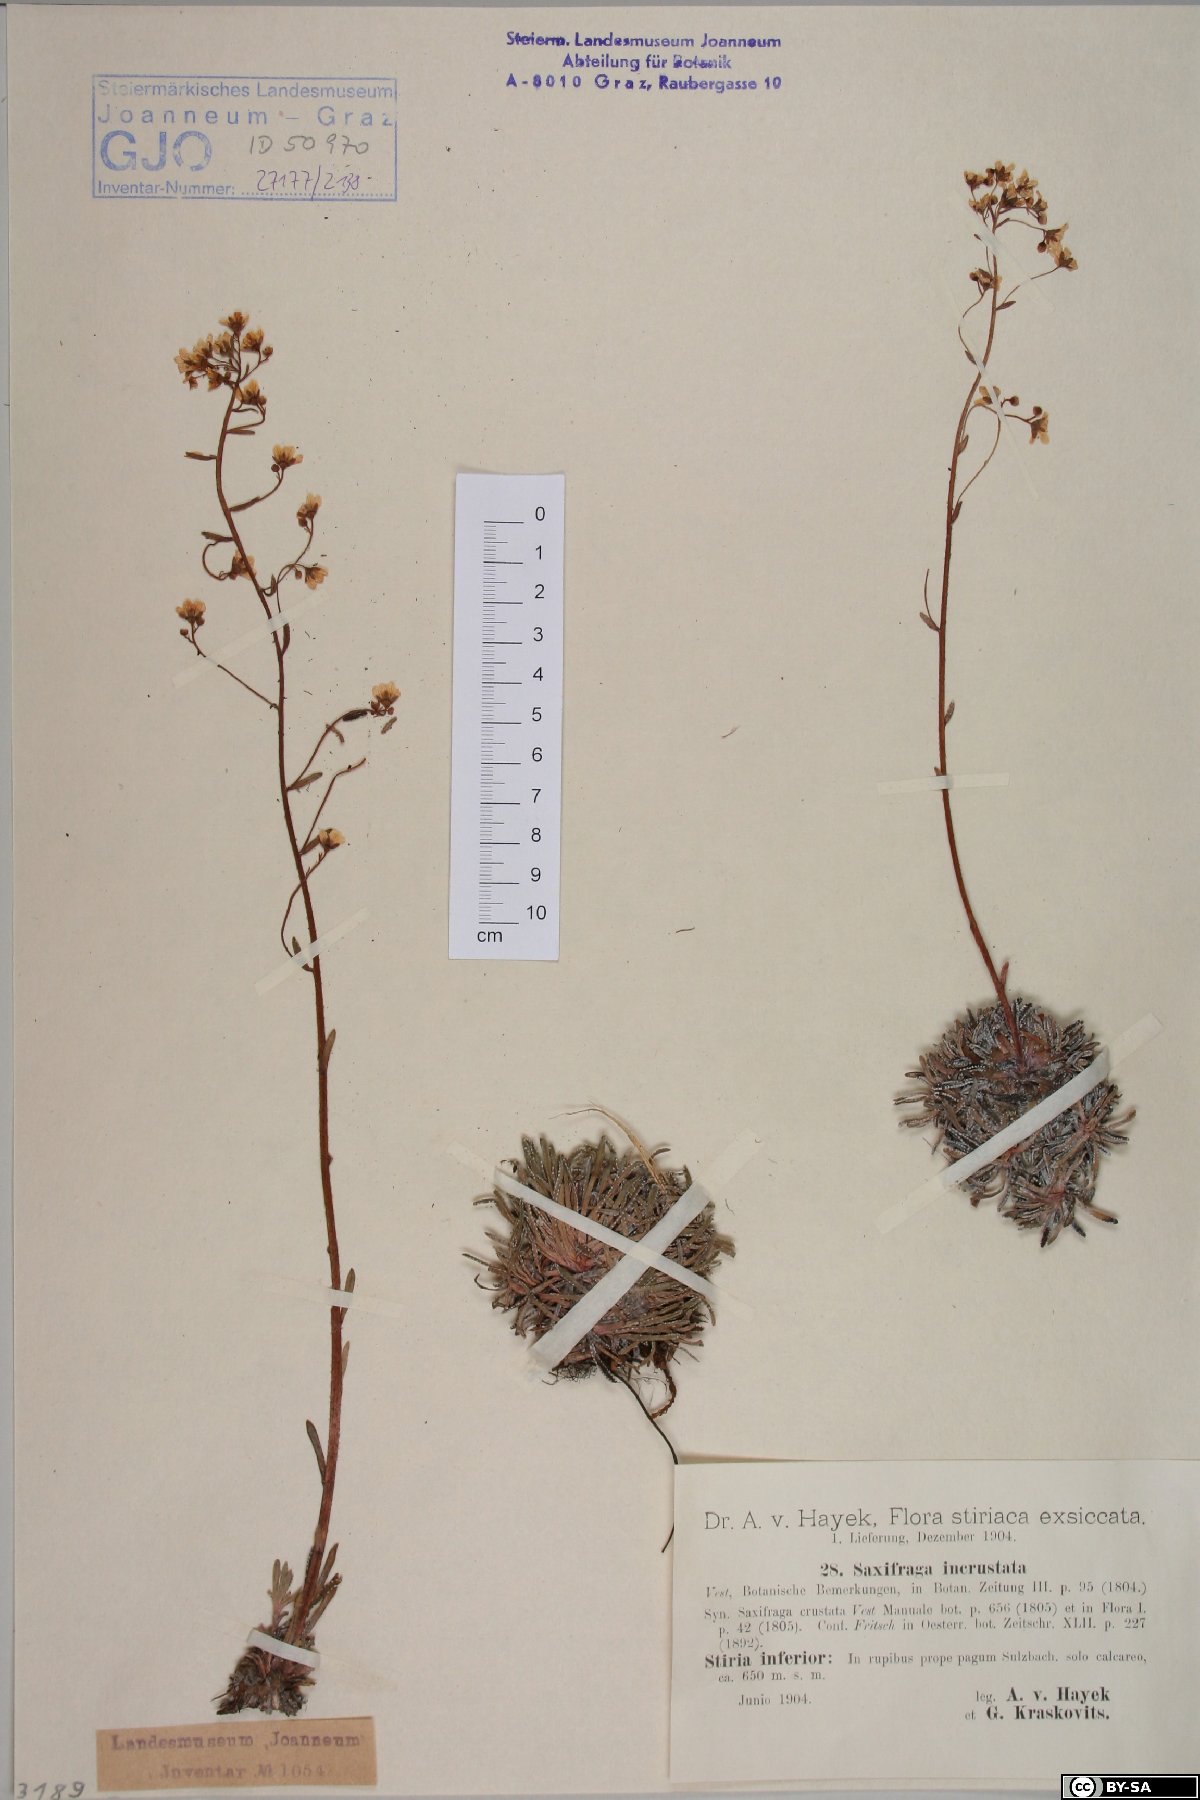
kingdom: Plantae
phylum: Tracheophyta
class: Magnoliopsida
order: Saxifragales
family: Saxifragaceae
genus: Saxifraga
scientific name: Saxifraga crustata
